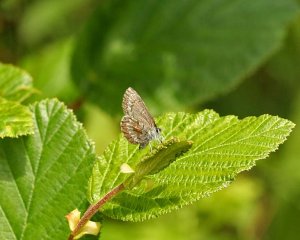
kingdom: Animalia
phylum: Arthropoda
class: Insecta
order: Lepidoptera
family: Lycaenidae
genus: Celastrina
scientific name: Celastrina lucia
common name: Northern Spring Azure
